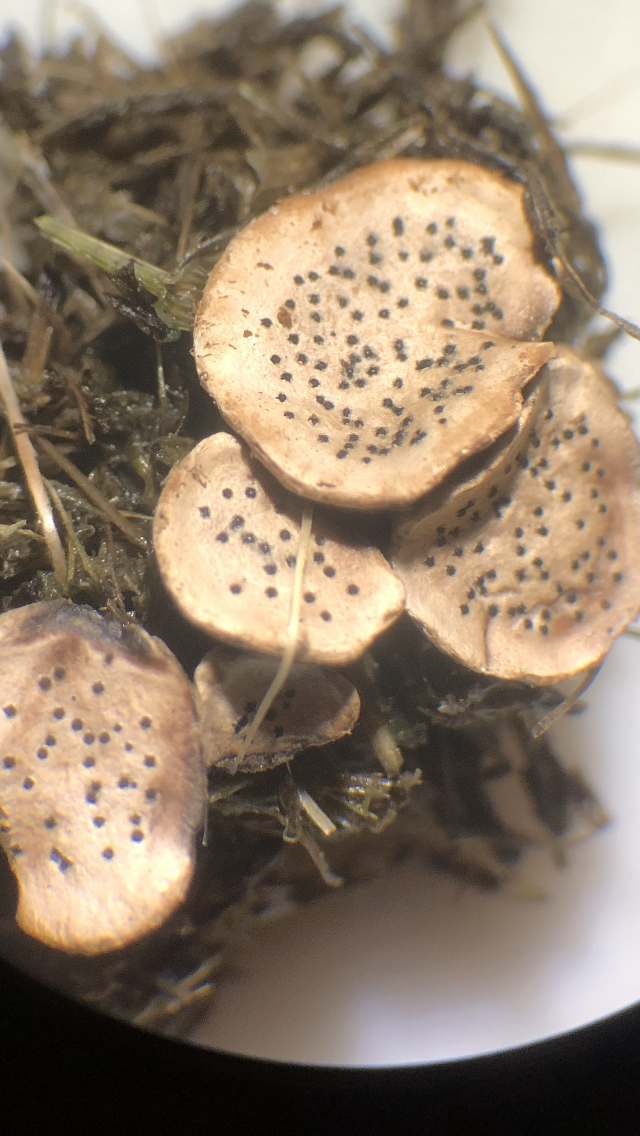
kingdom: Fungi
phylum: Ascomycota
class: Sordariomycetes
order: Xylariales
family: Xylariaceae
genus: Poronia
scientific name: Poronia punctata
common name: stor priksvamp
